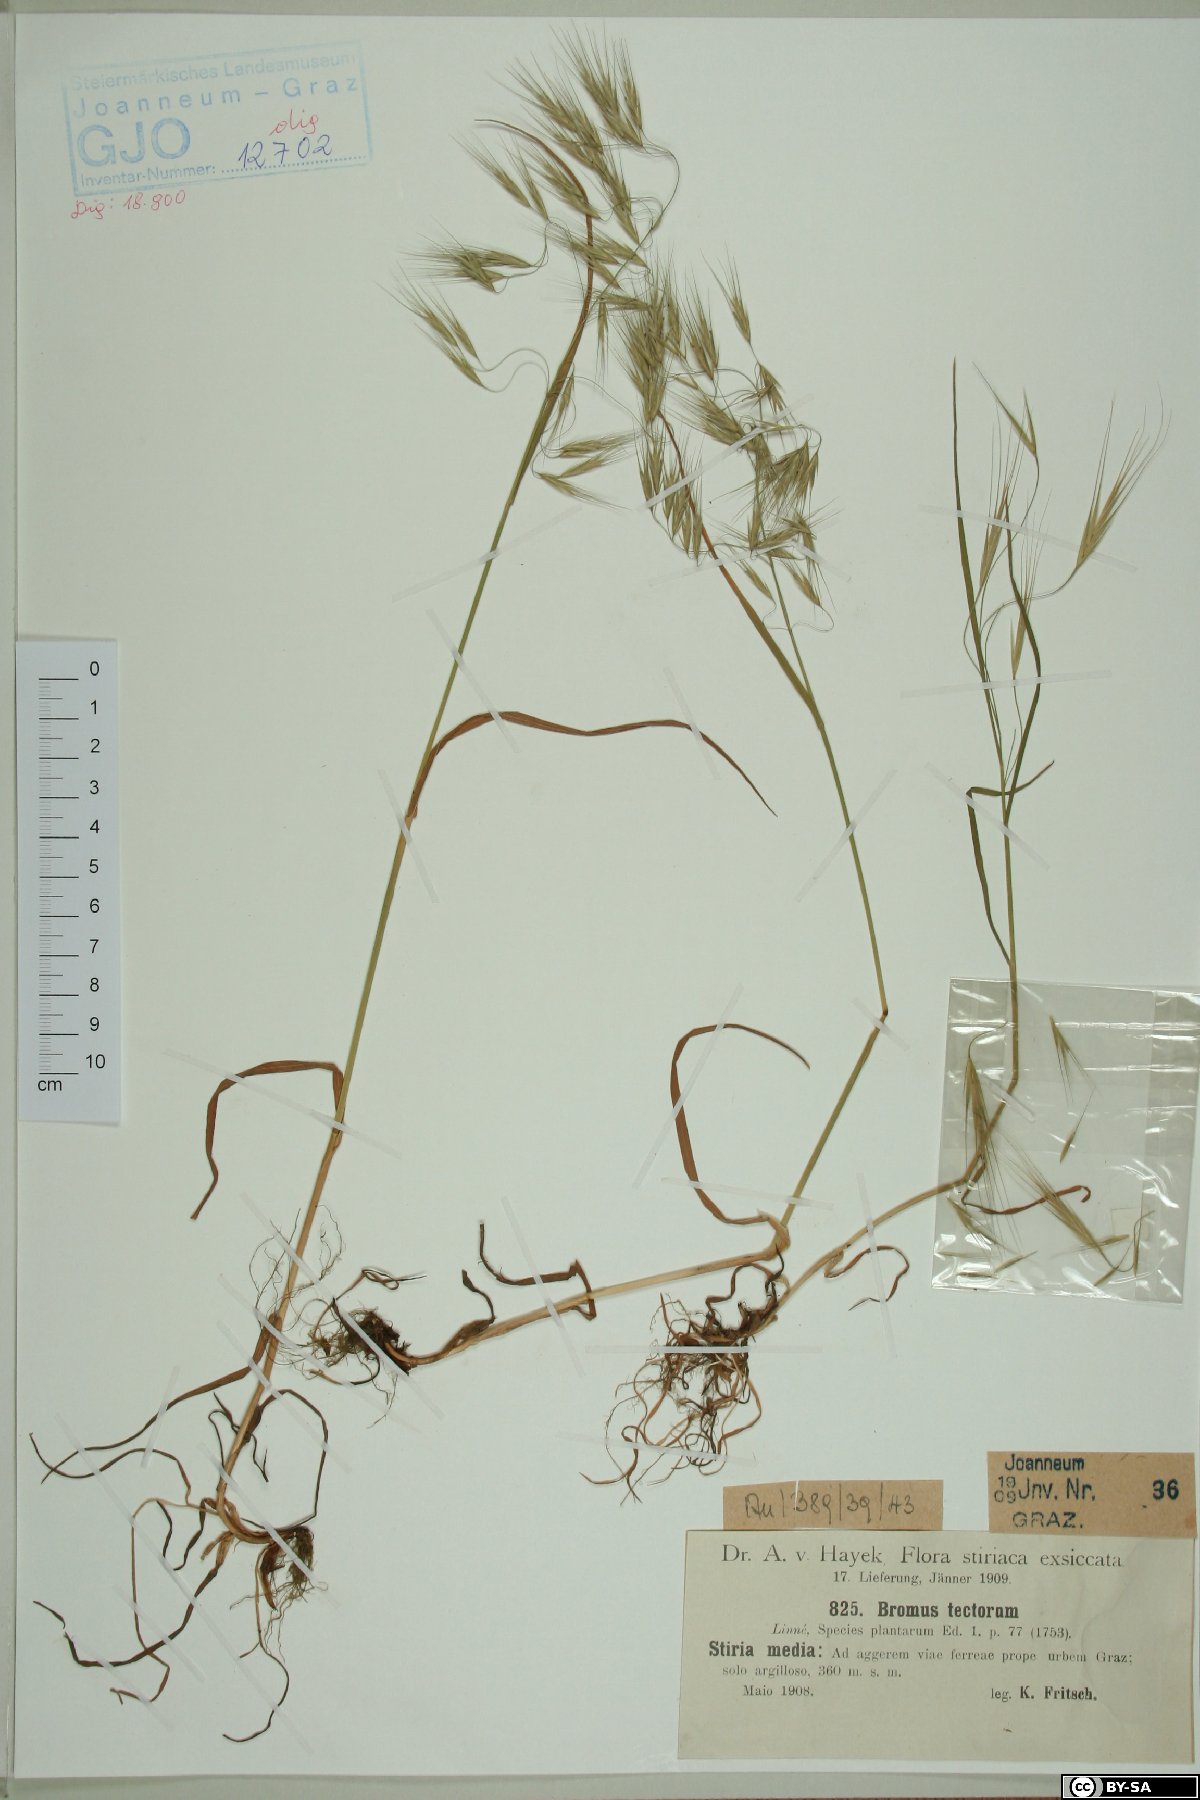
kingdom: Plantae
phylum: Tracheophyta
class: Liliopsida
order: Poales
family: Poaceae
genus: Bromus
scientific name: Bromus tectorum
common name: Cheatgrass
